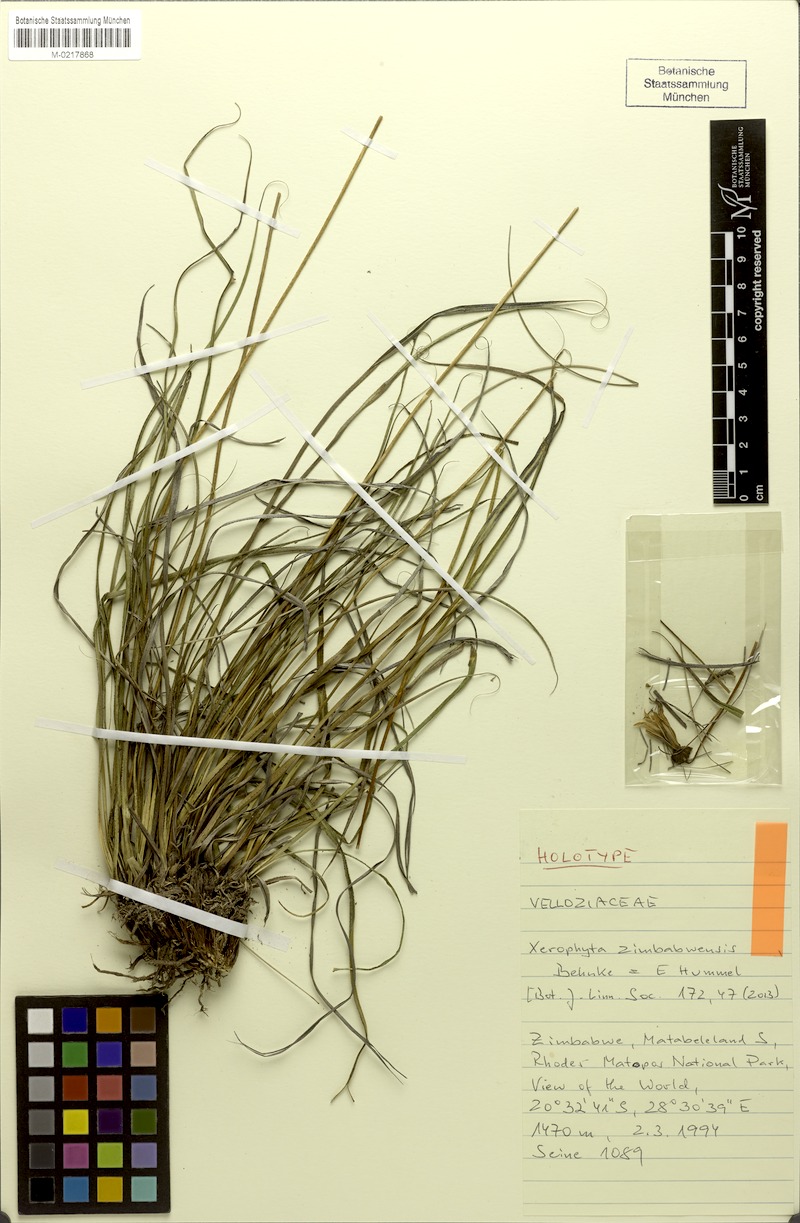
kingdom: Plantae
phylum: Tracheophyta
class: Liliopsida
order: Pandanales
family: Velloziaceae
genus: Xerophyta
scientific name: Xerophyta zimbabwensis
